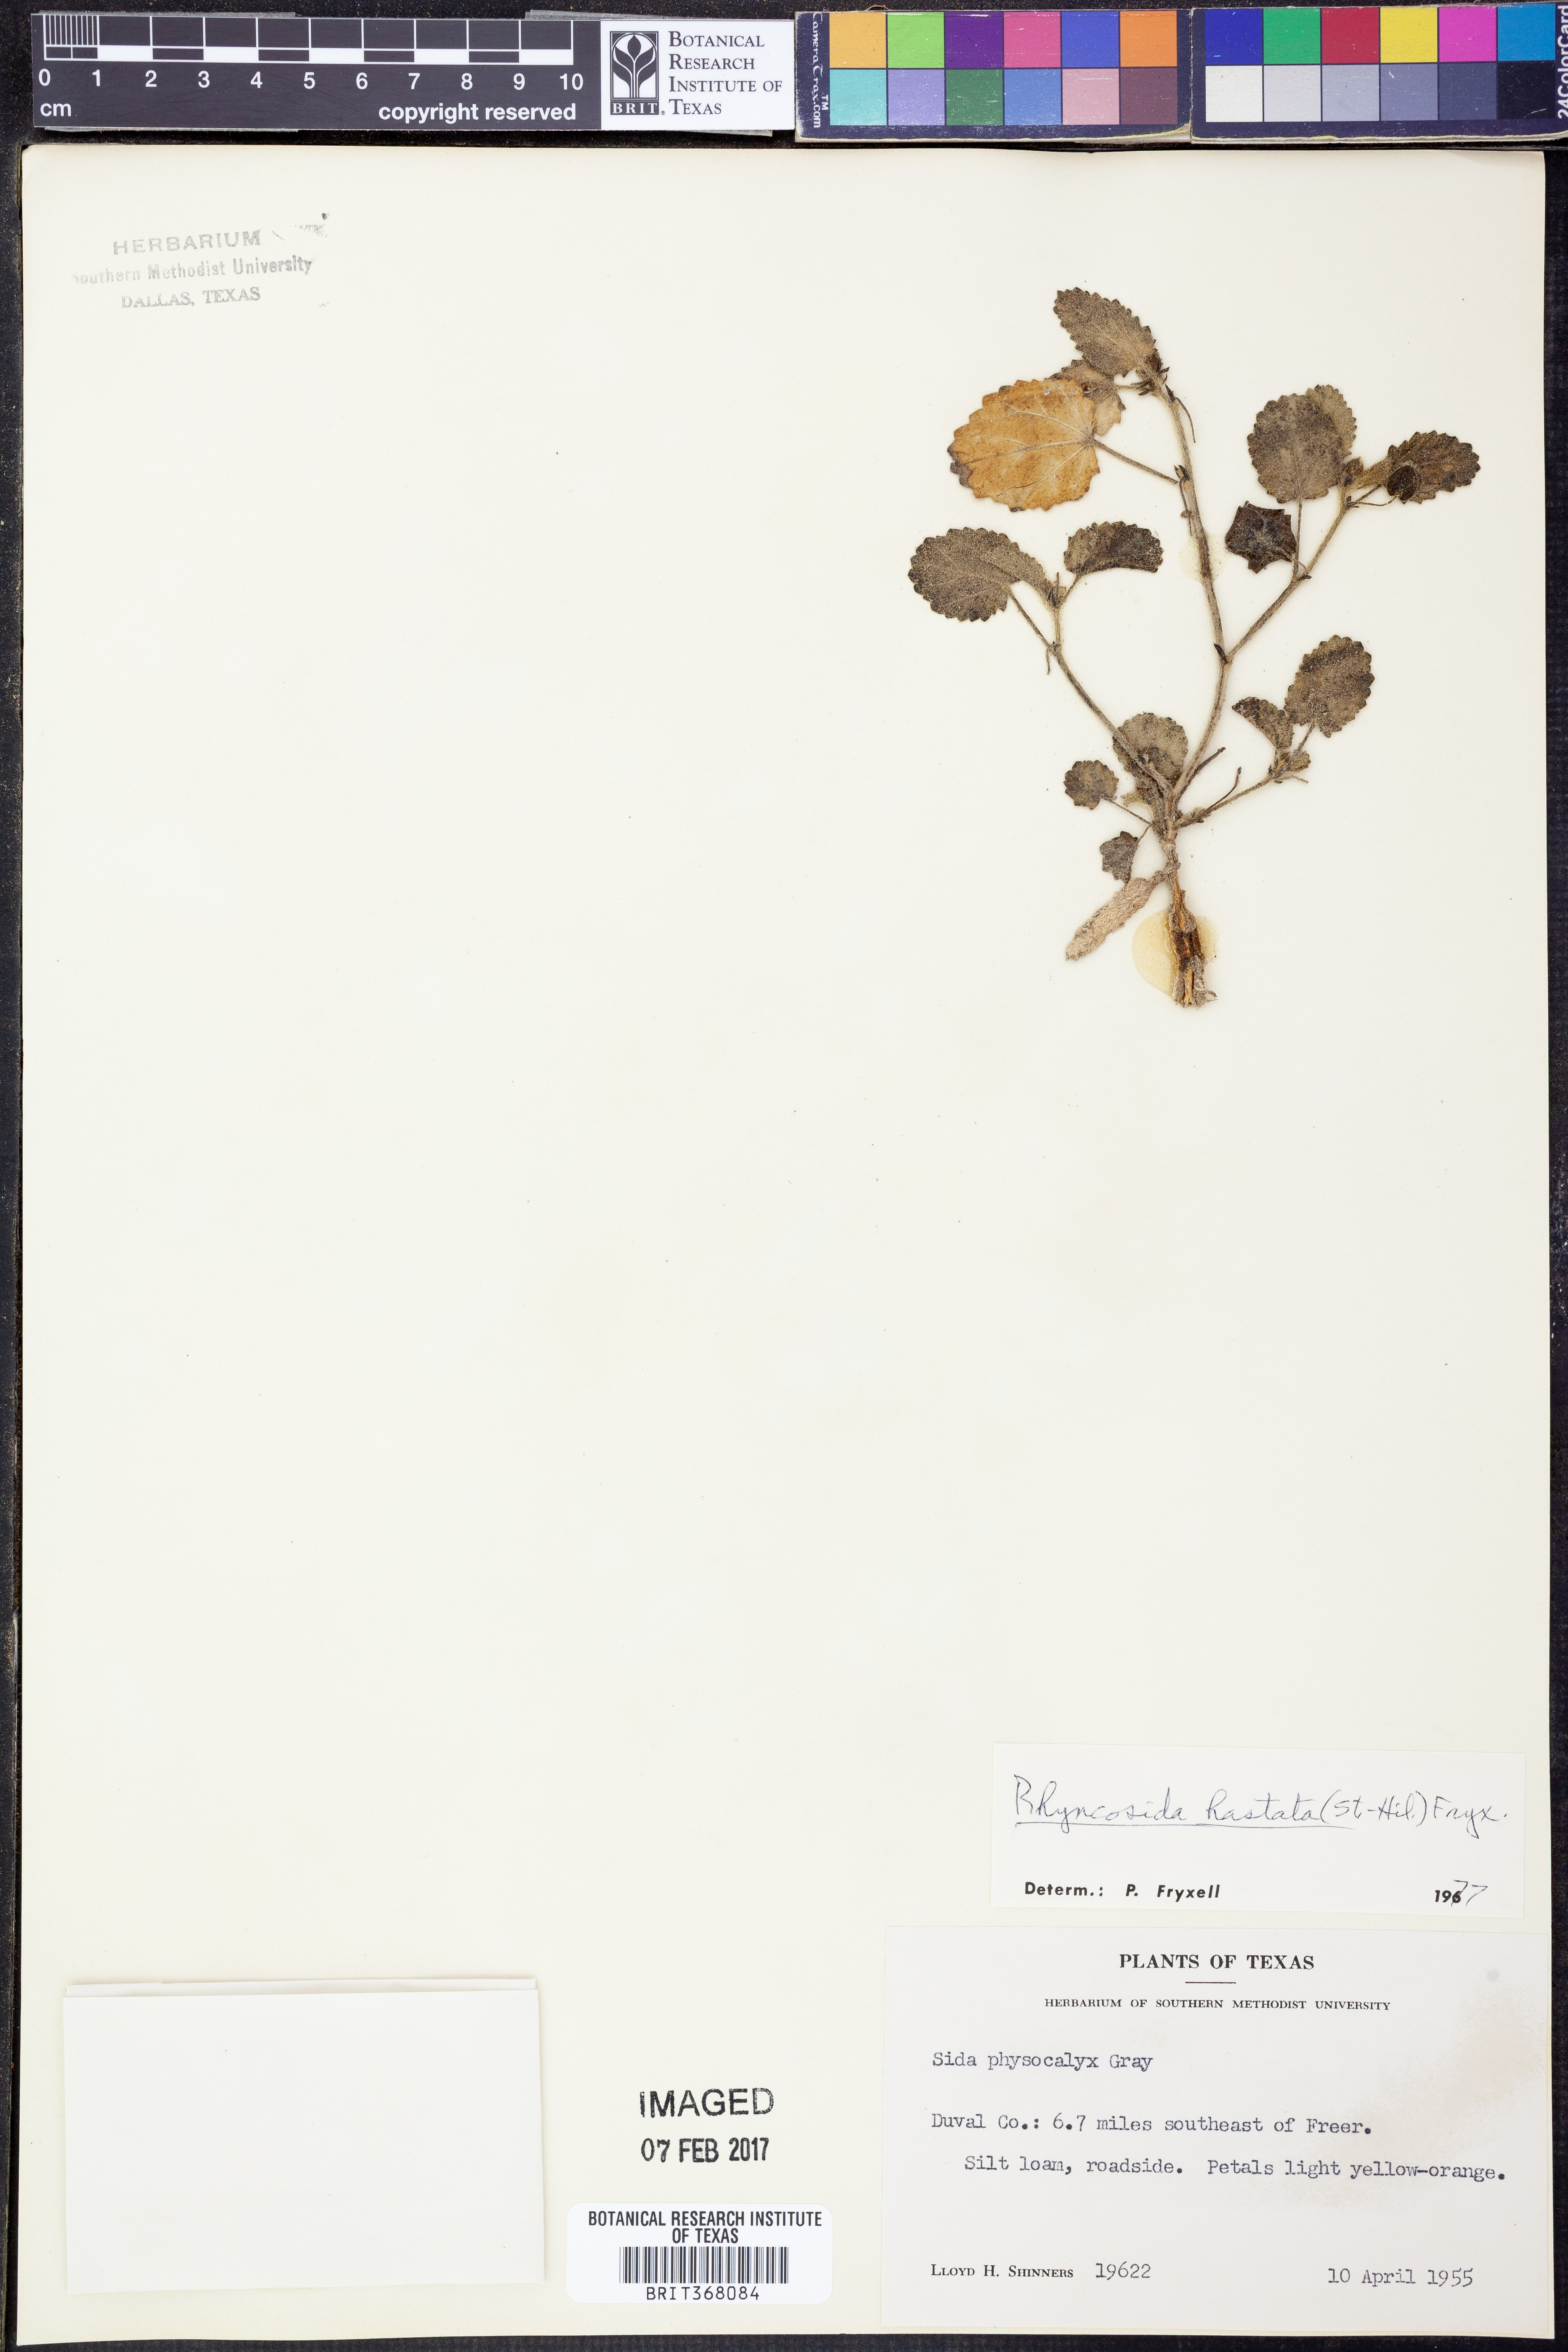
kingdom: Plantae
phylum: Tracheophyta
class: Magnoliopsida
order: Malvales
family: Malvaceae
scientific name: Malvaceae
